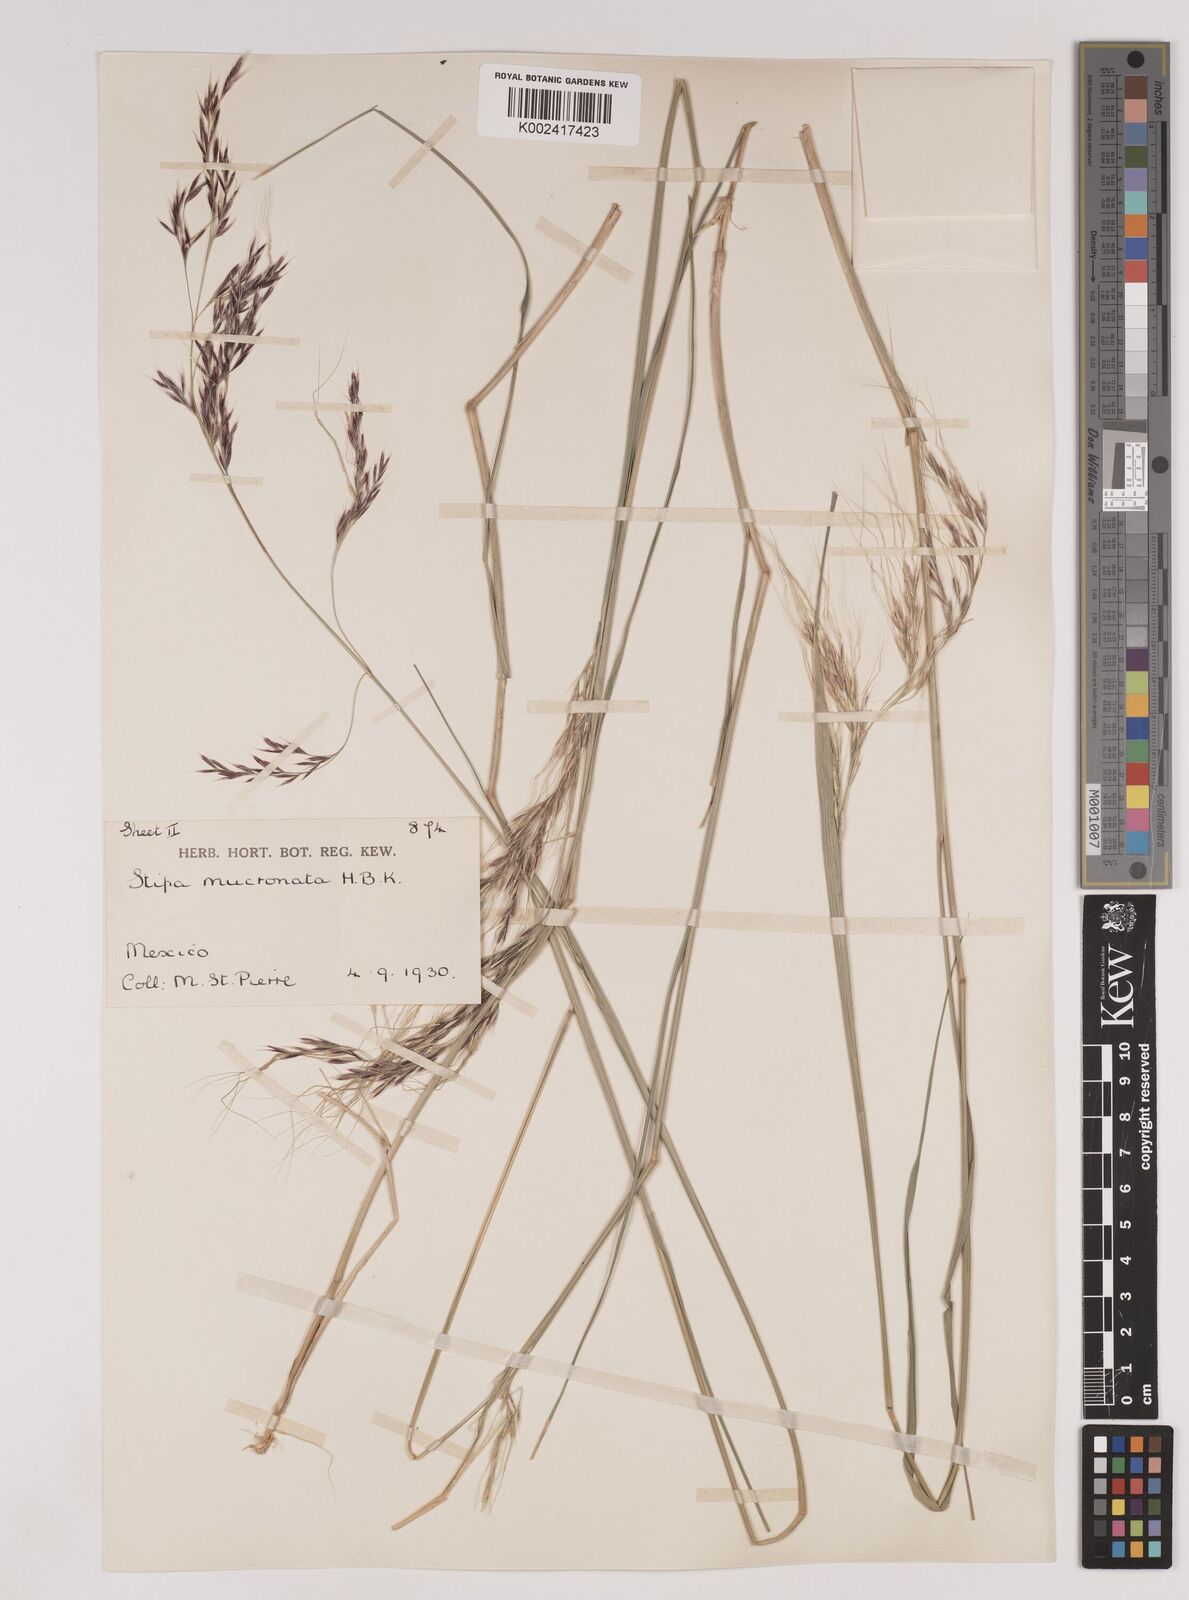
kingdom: Plantae
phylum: Tracheophyta
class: Liliopsida
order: Poales
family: Poaceae
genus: Nassella
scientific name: Nassella mucronata
